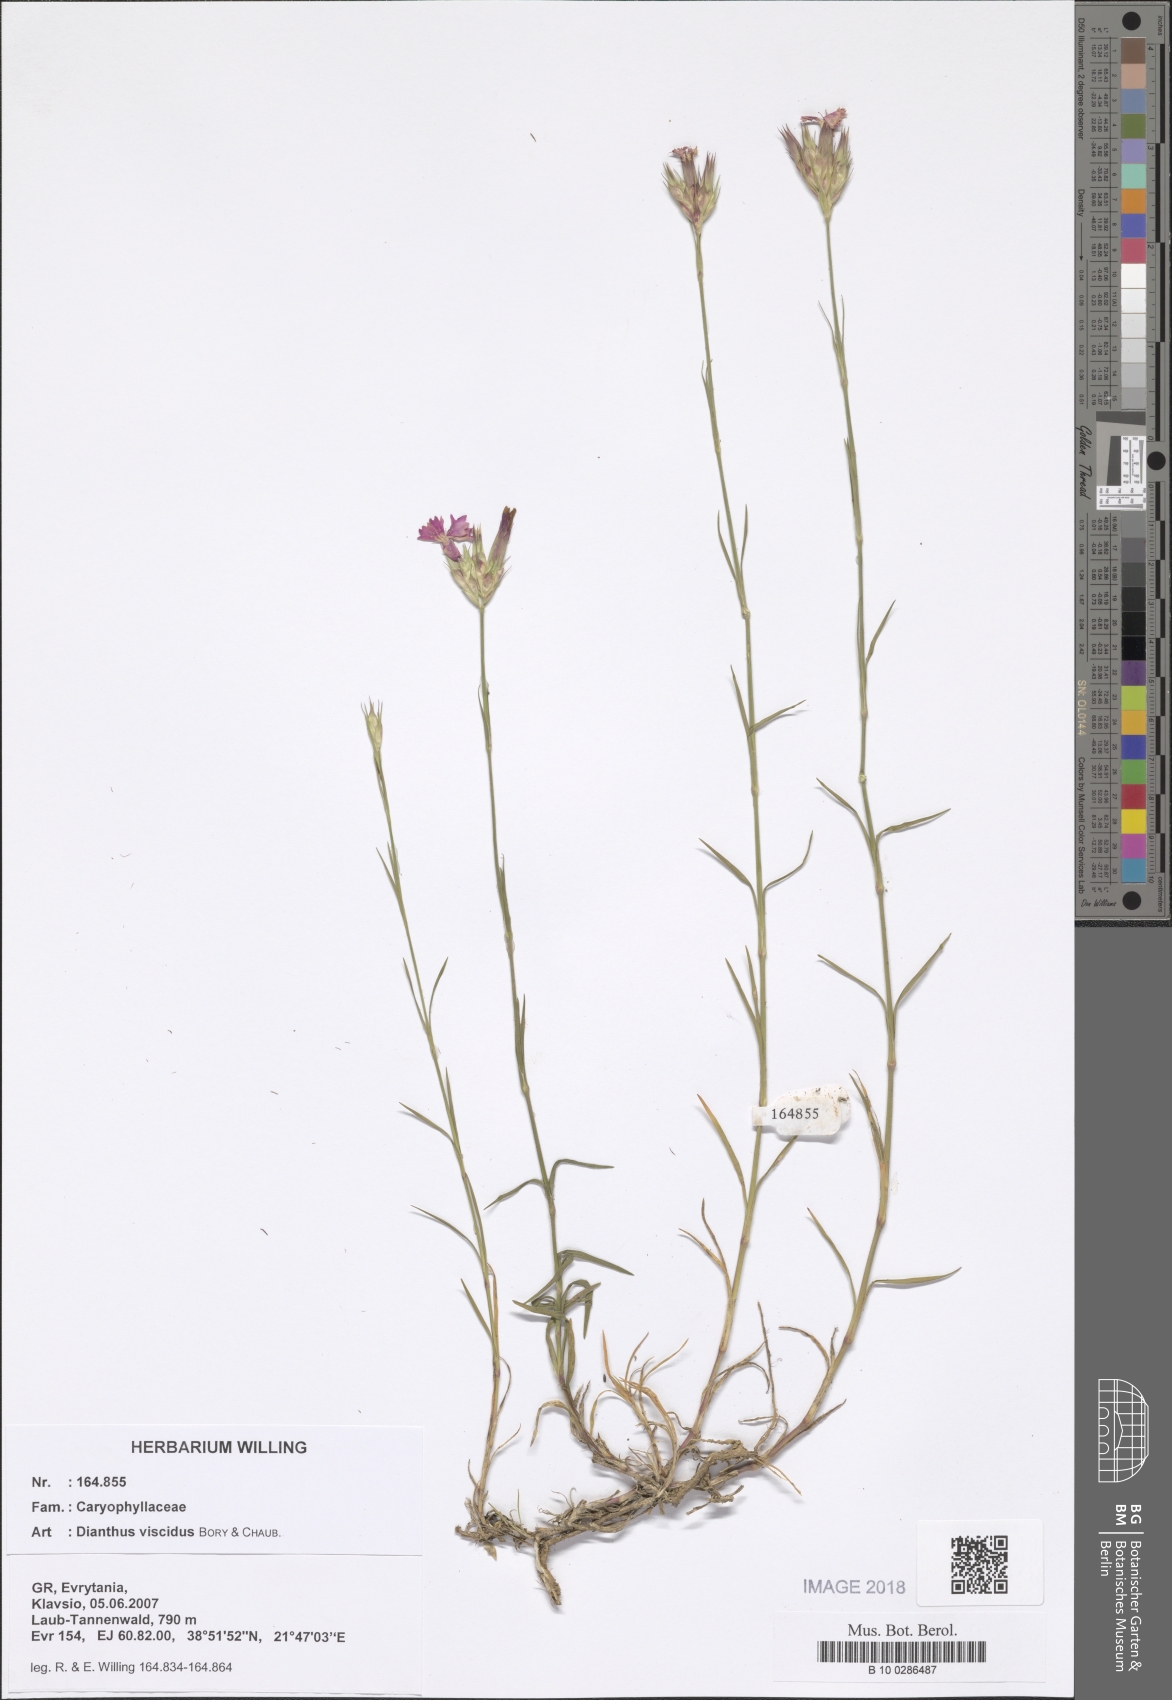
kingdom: Plantae
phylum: Tracheophyta
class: Magnoliopsida
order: Caryophyllales
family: Caryophyllaceae
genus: Dianthus
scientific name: Dianthus viscidus
